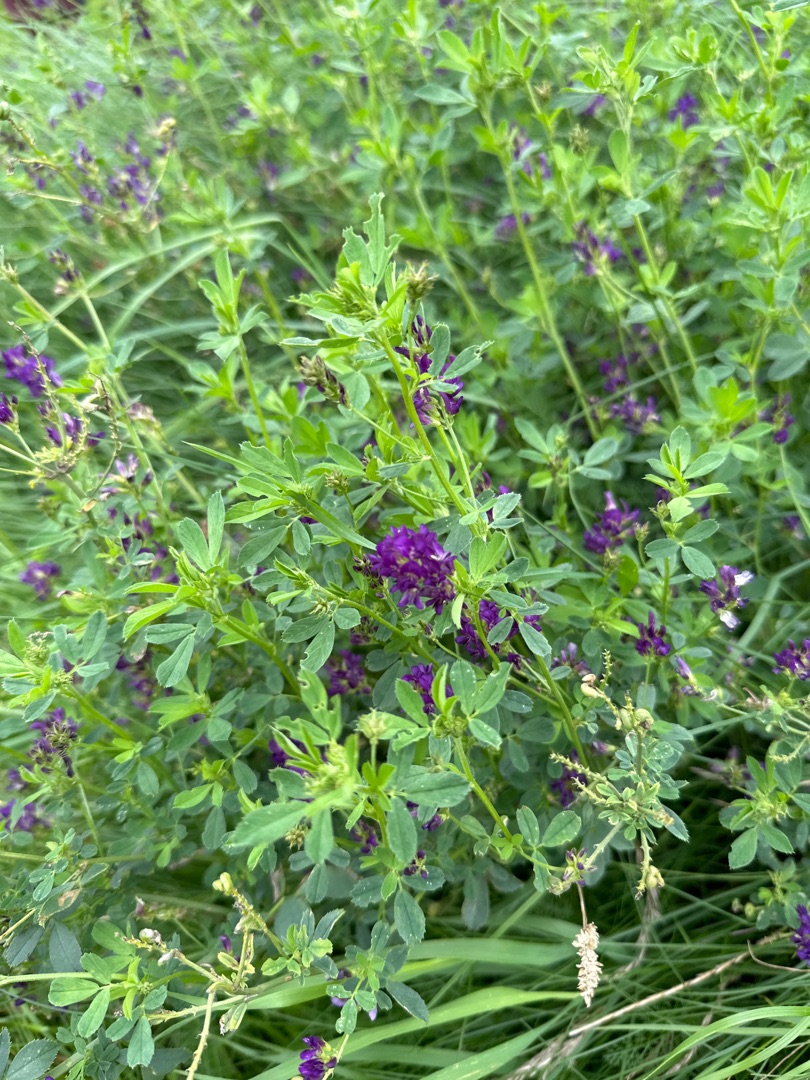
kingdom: Plantae
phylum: Tracheophyta
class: Magnoliopsida
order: Fabales
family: Fabaceae
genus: Medicago
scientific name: Medicago sativa
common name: Lucerne
